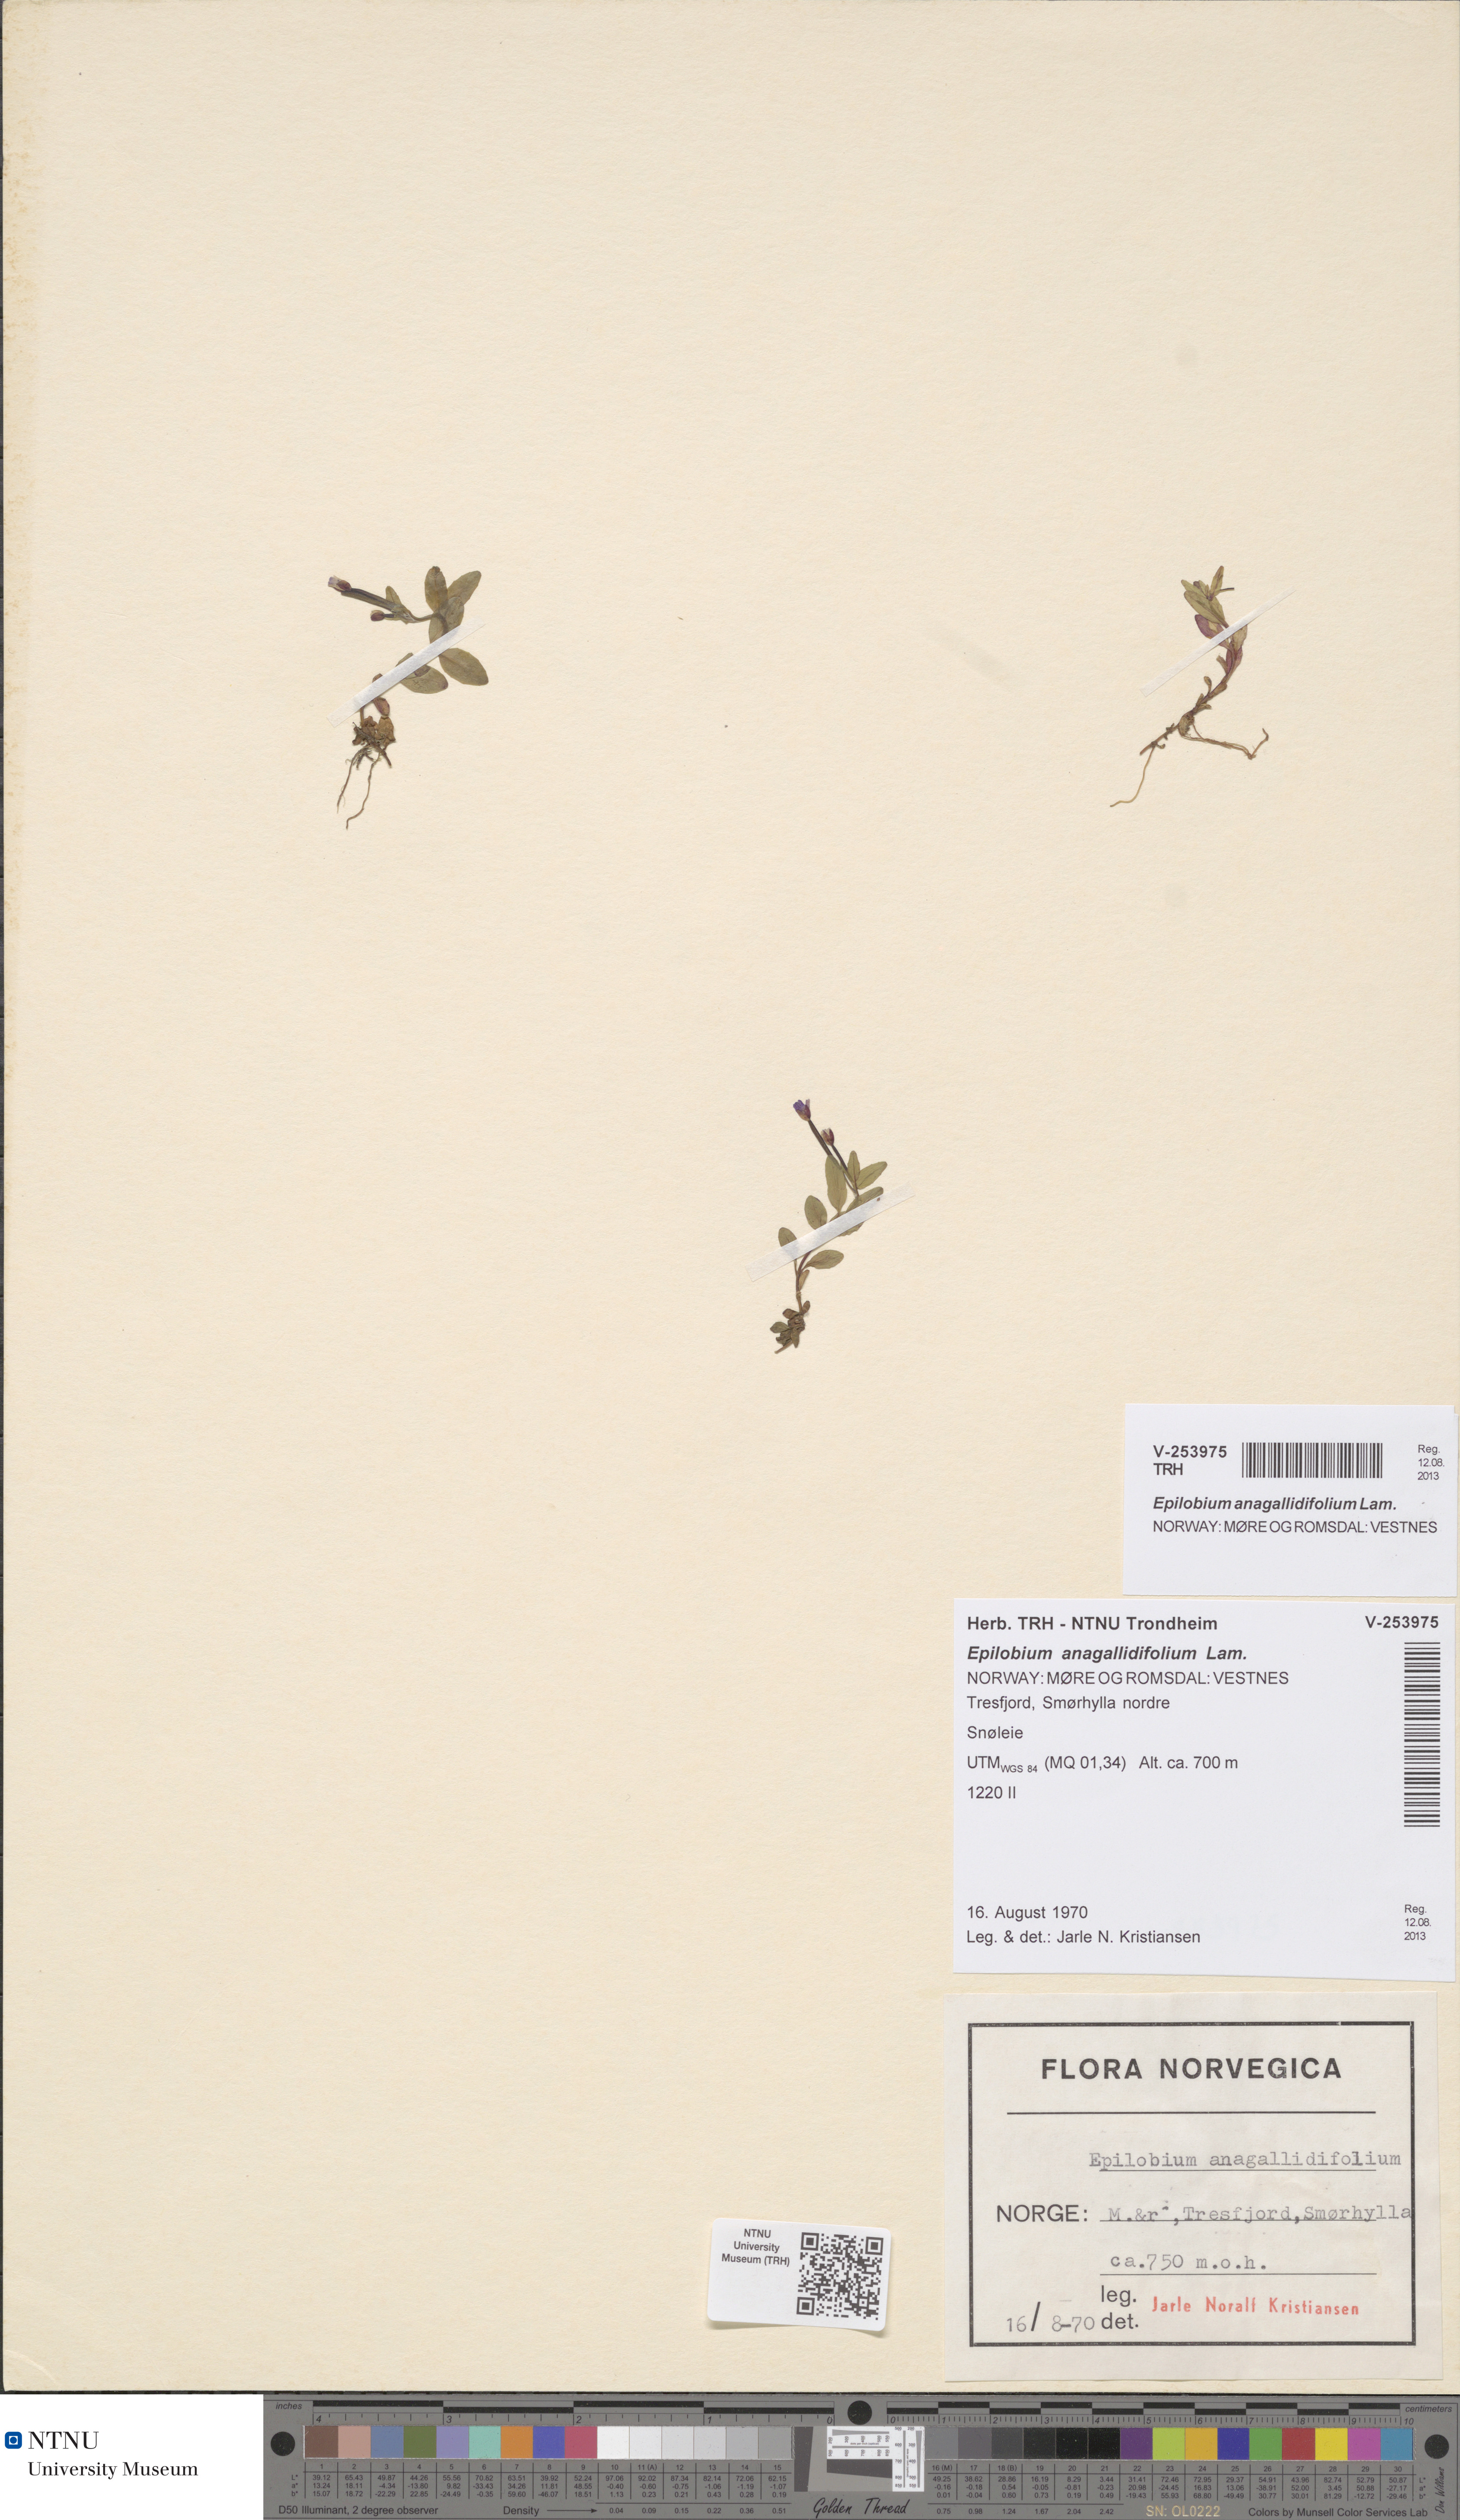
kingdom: Plantae
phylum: Tracheophyta
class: Magnoliopsida
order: Myrtales
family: Onagraceae
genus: Epilobium
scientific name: Epilobium anagallidifolium
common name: Alpine willowherb
